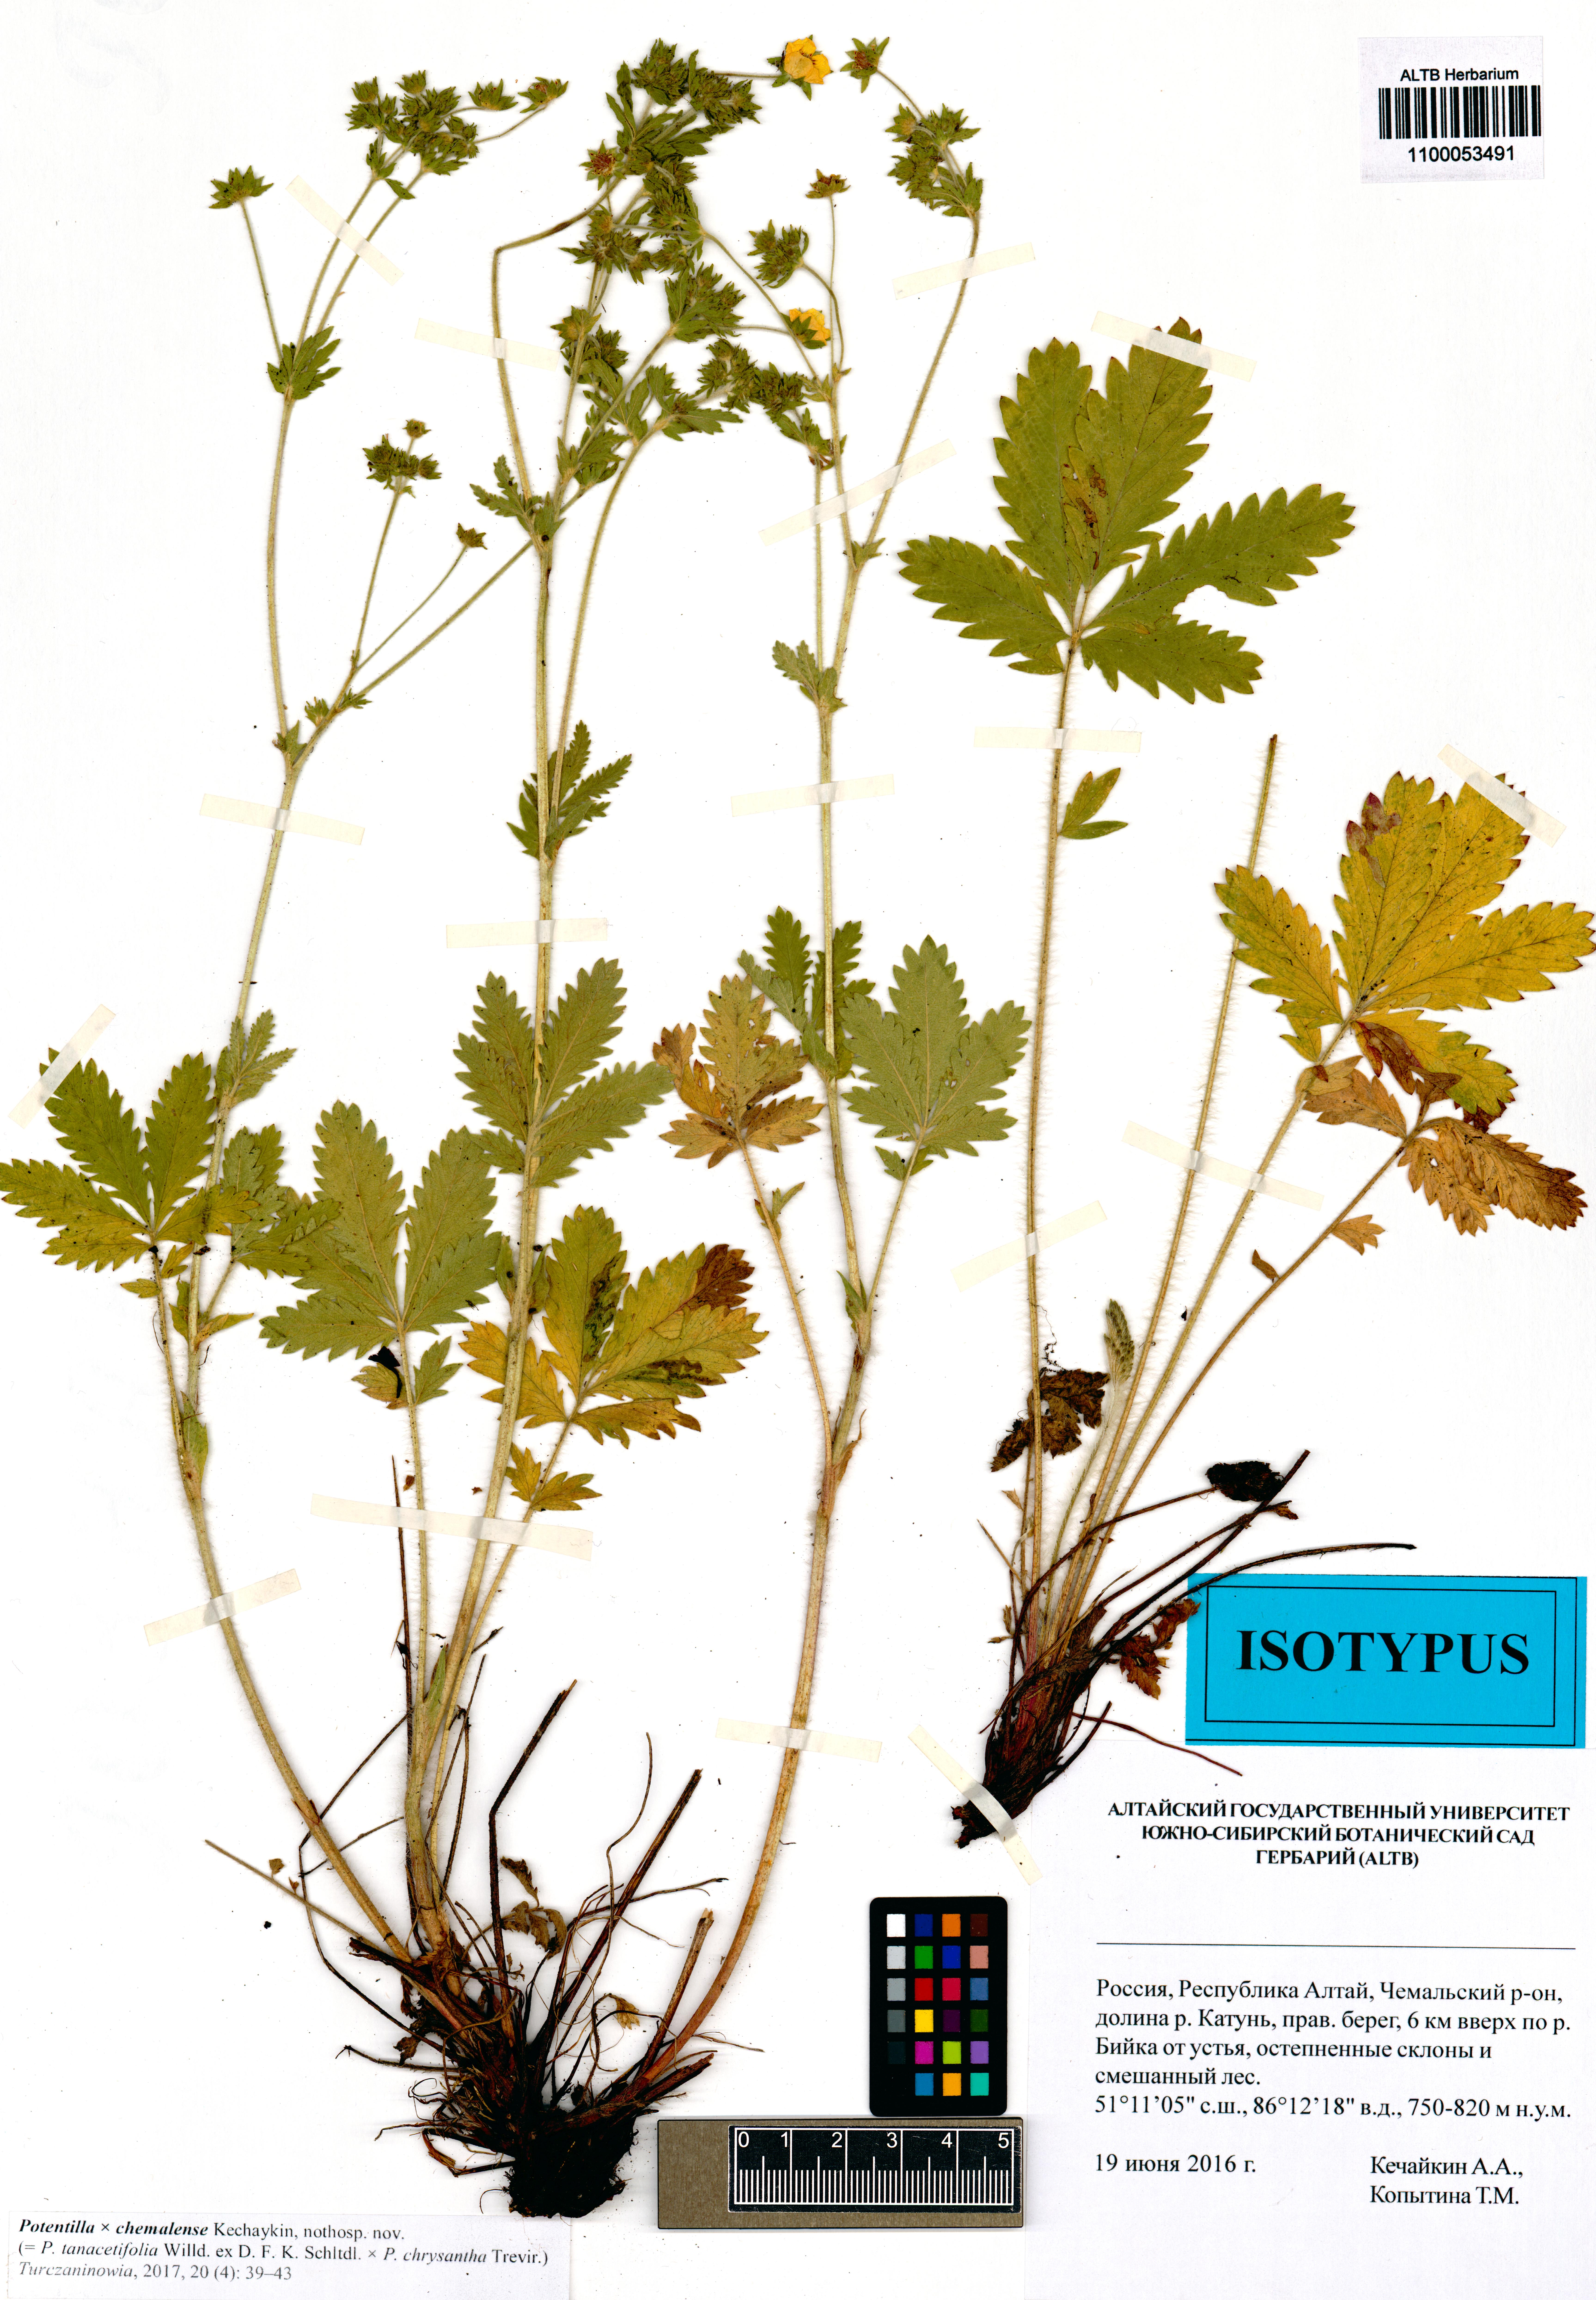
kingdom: Plantae
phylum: Tracheophyta
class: Magnoliopsida
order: Rosales
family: Rosaceae
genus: Potentilla
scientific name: Potentilla chemalensis
